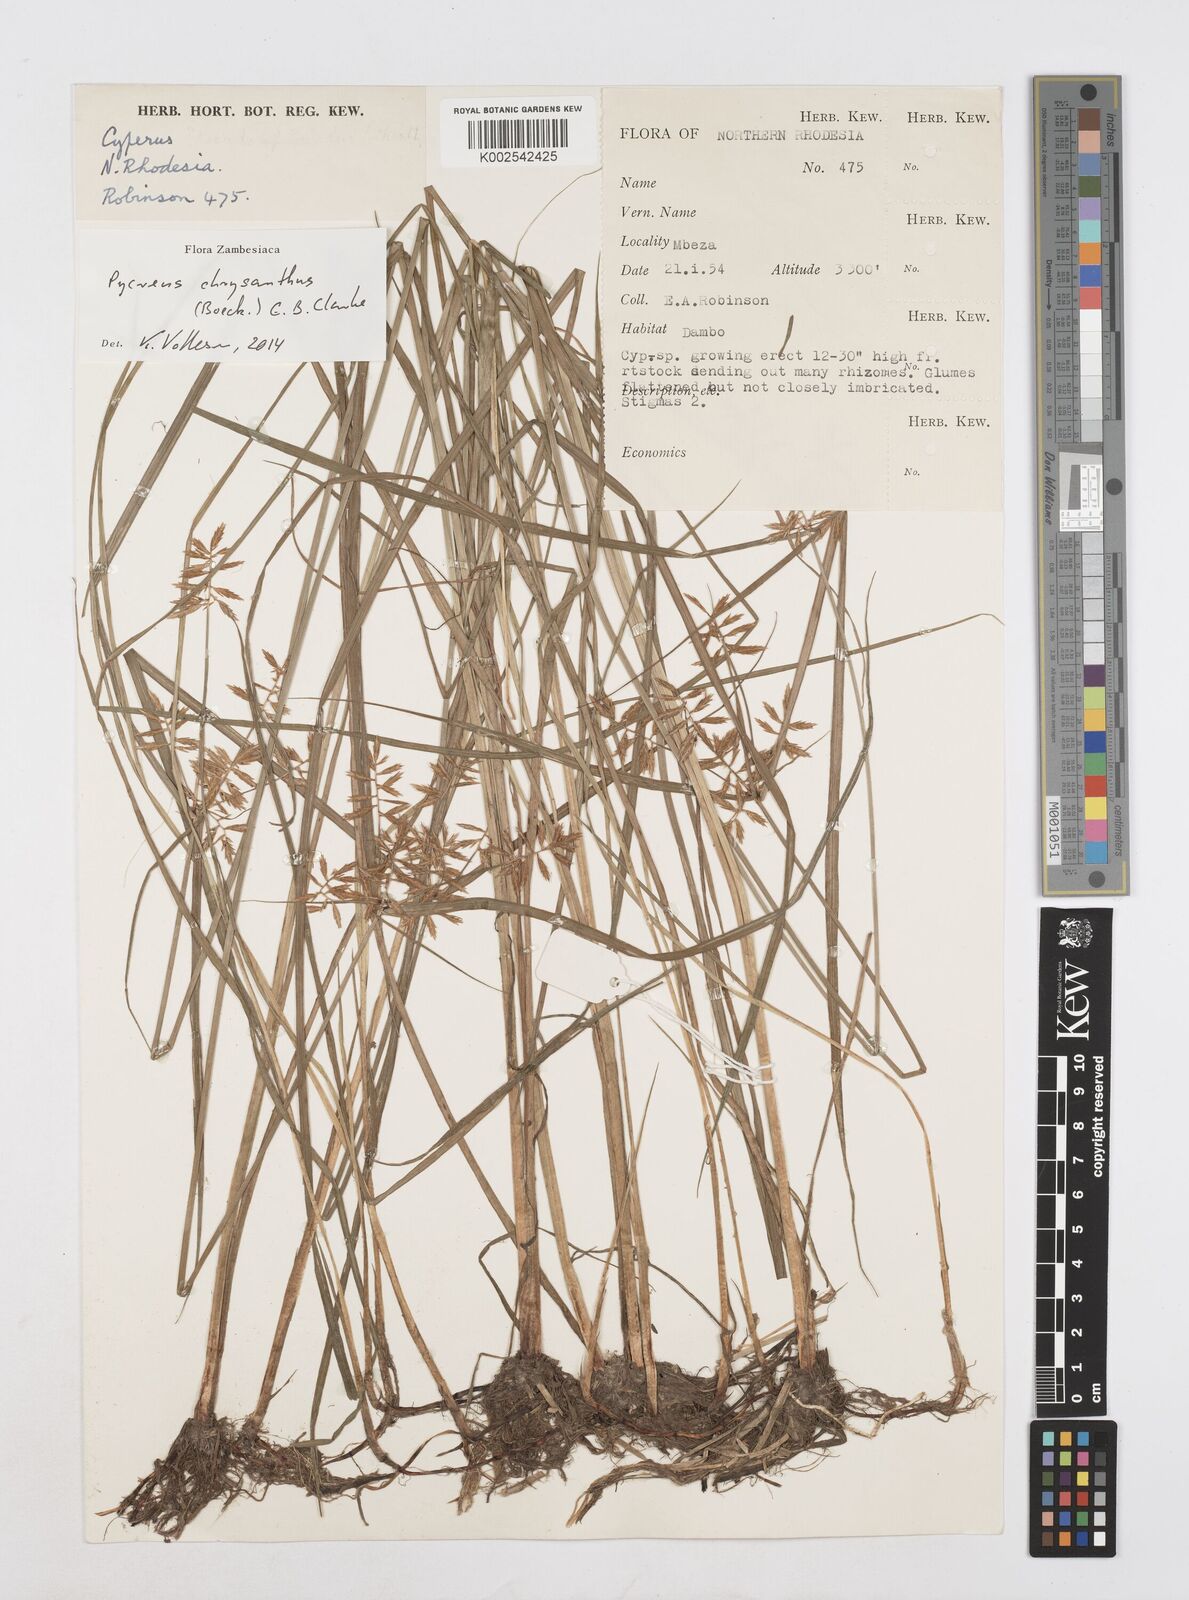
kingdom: Plantae
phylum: Tracheophyta
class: Liliopsida
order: Poales
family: Cyperaceae
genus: Cyperus
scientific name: Cyperus chrysanthus
